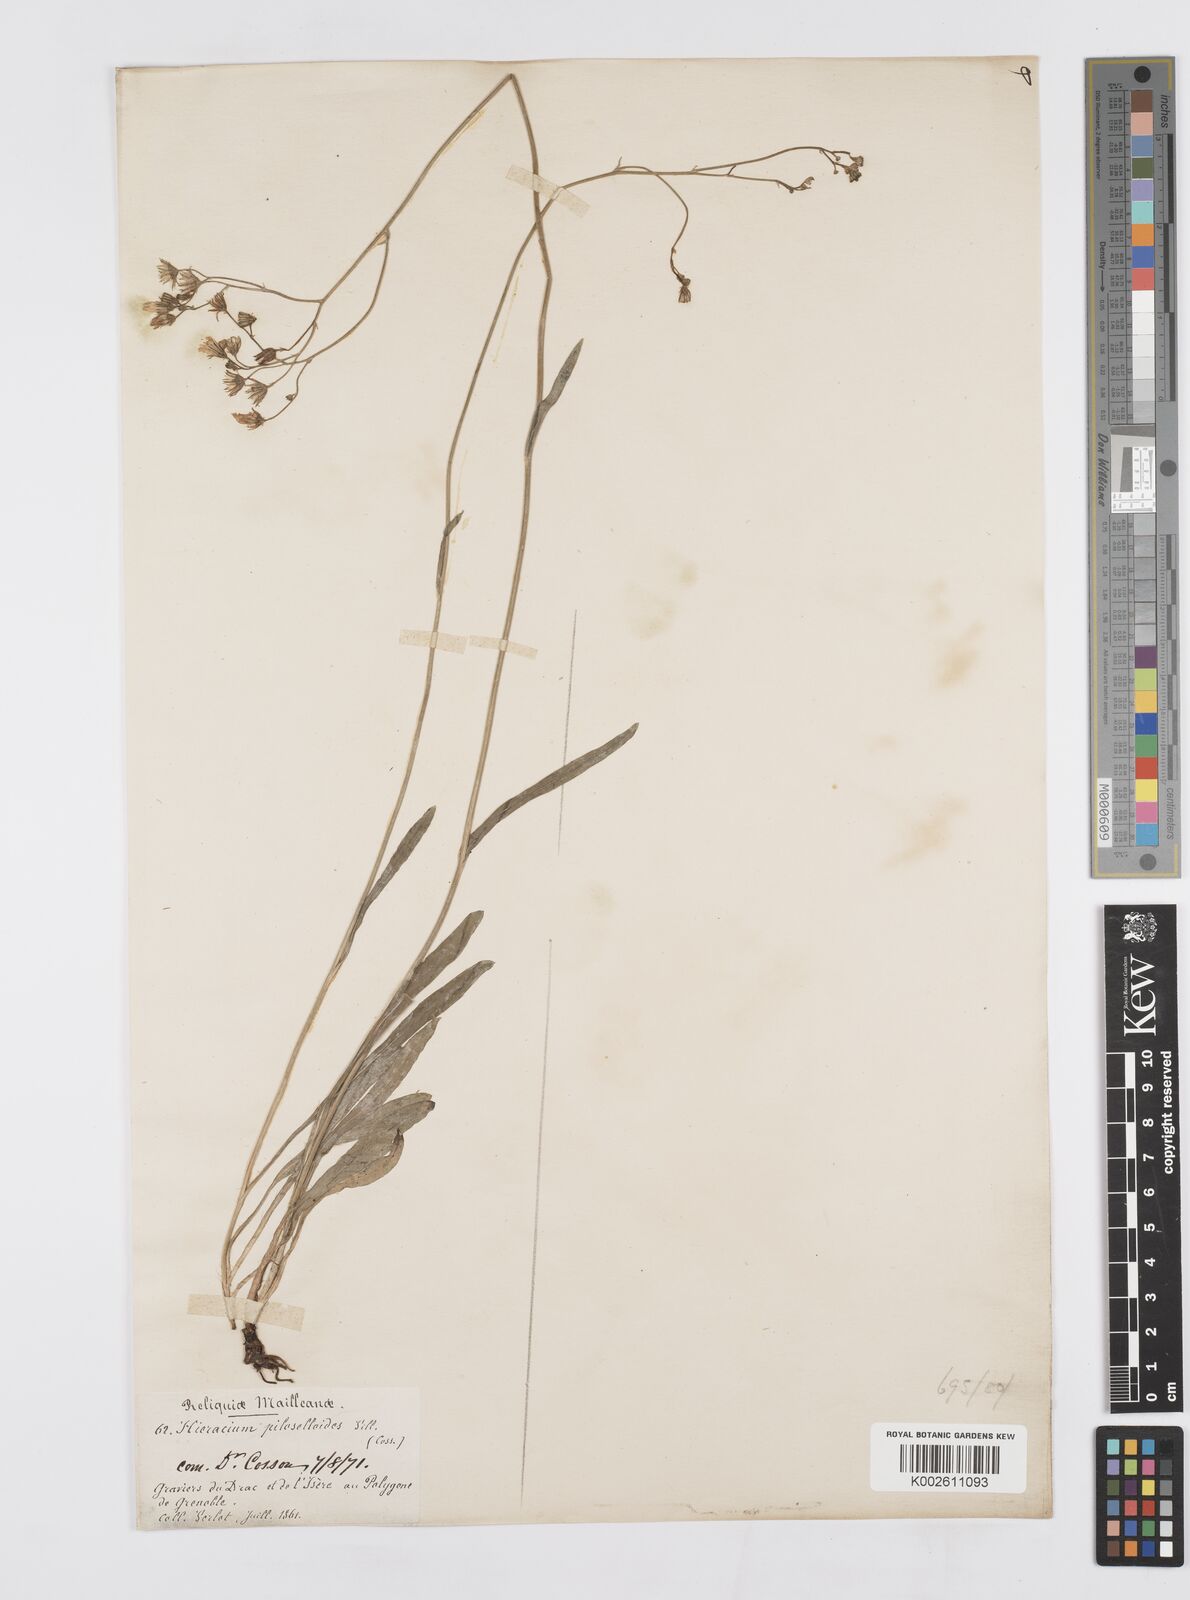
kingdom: Plantae
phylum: Tracheophyta
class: Magnoliopsida
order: Asterales
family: Asteraceae
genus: Pilosella
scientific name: Pilosella piloselloides
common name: Glaucous king-devil
